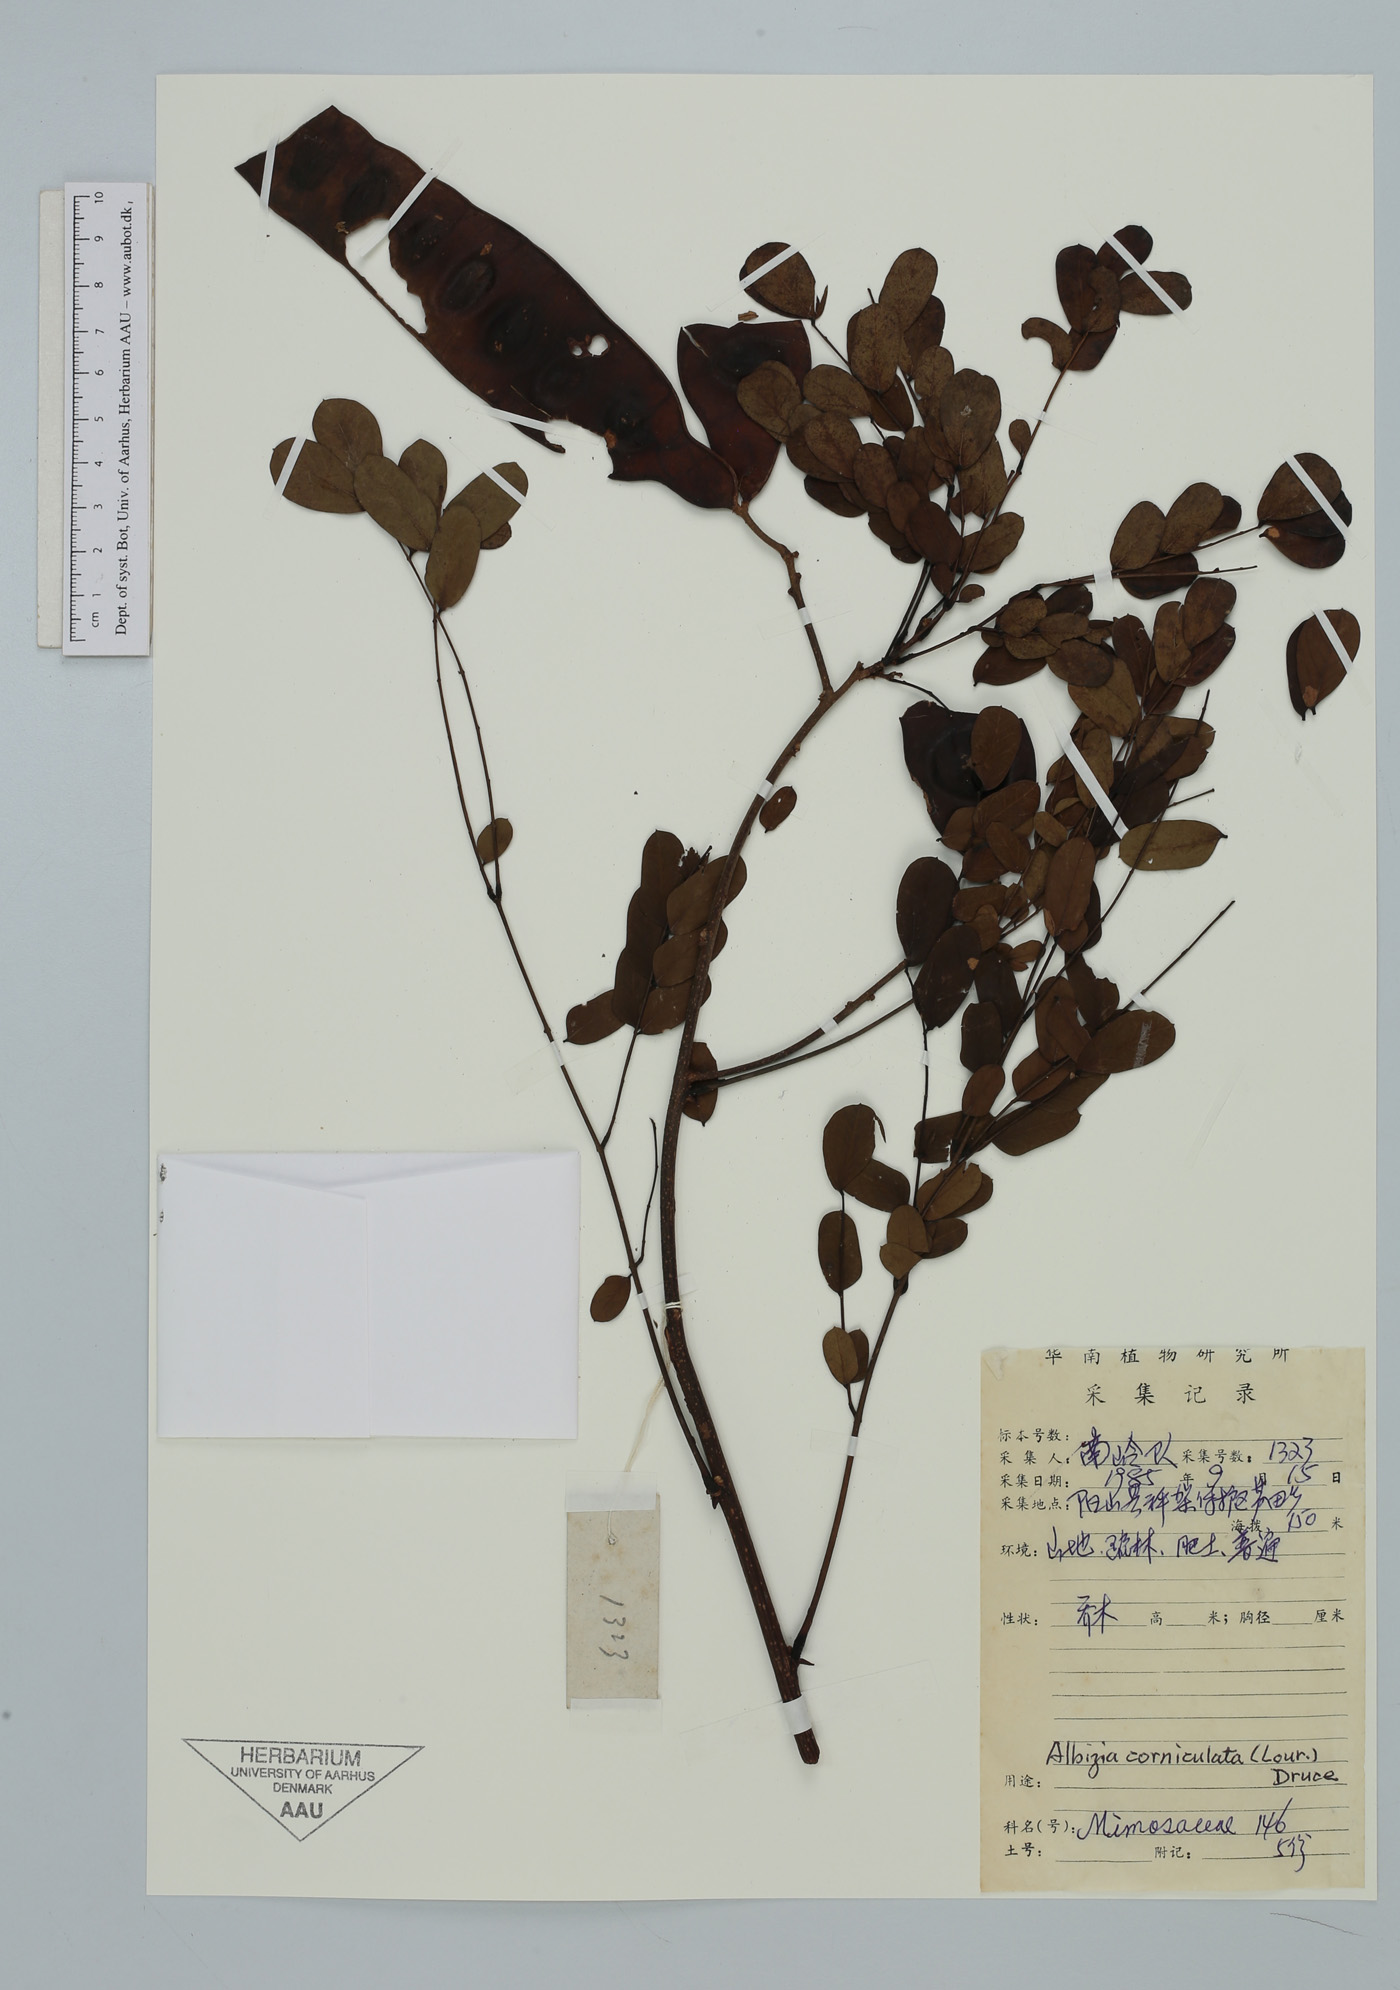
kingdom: Plantae
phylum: Tracheophyta
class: Magnoliopsida
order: Fabales
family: Fabaceae
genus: Albizia
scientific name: Albizia corniculata
